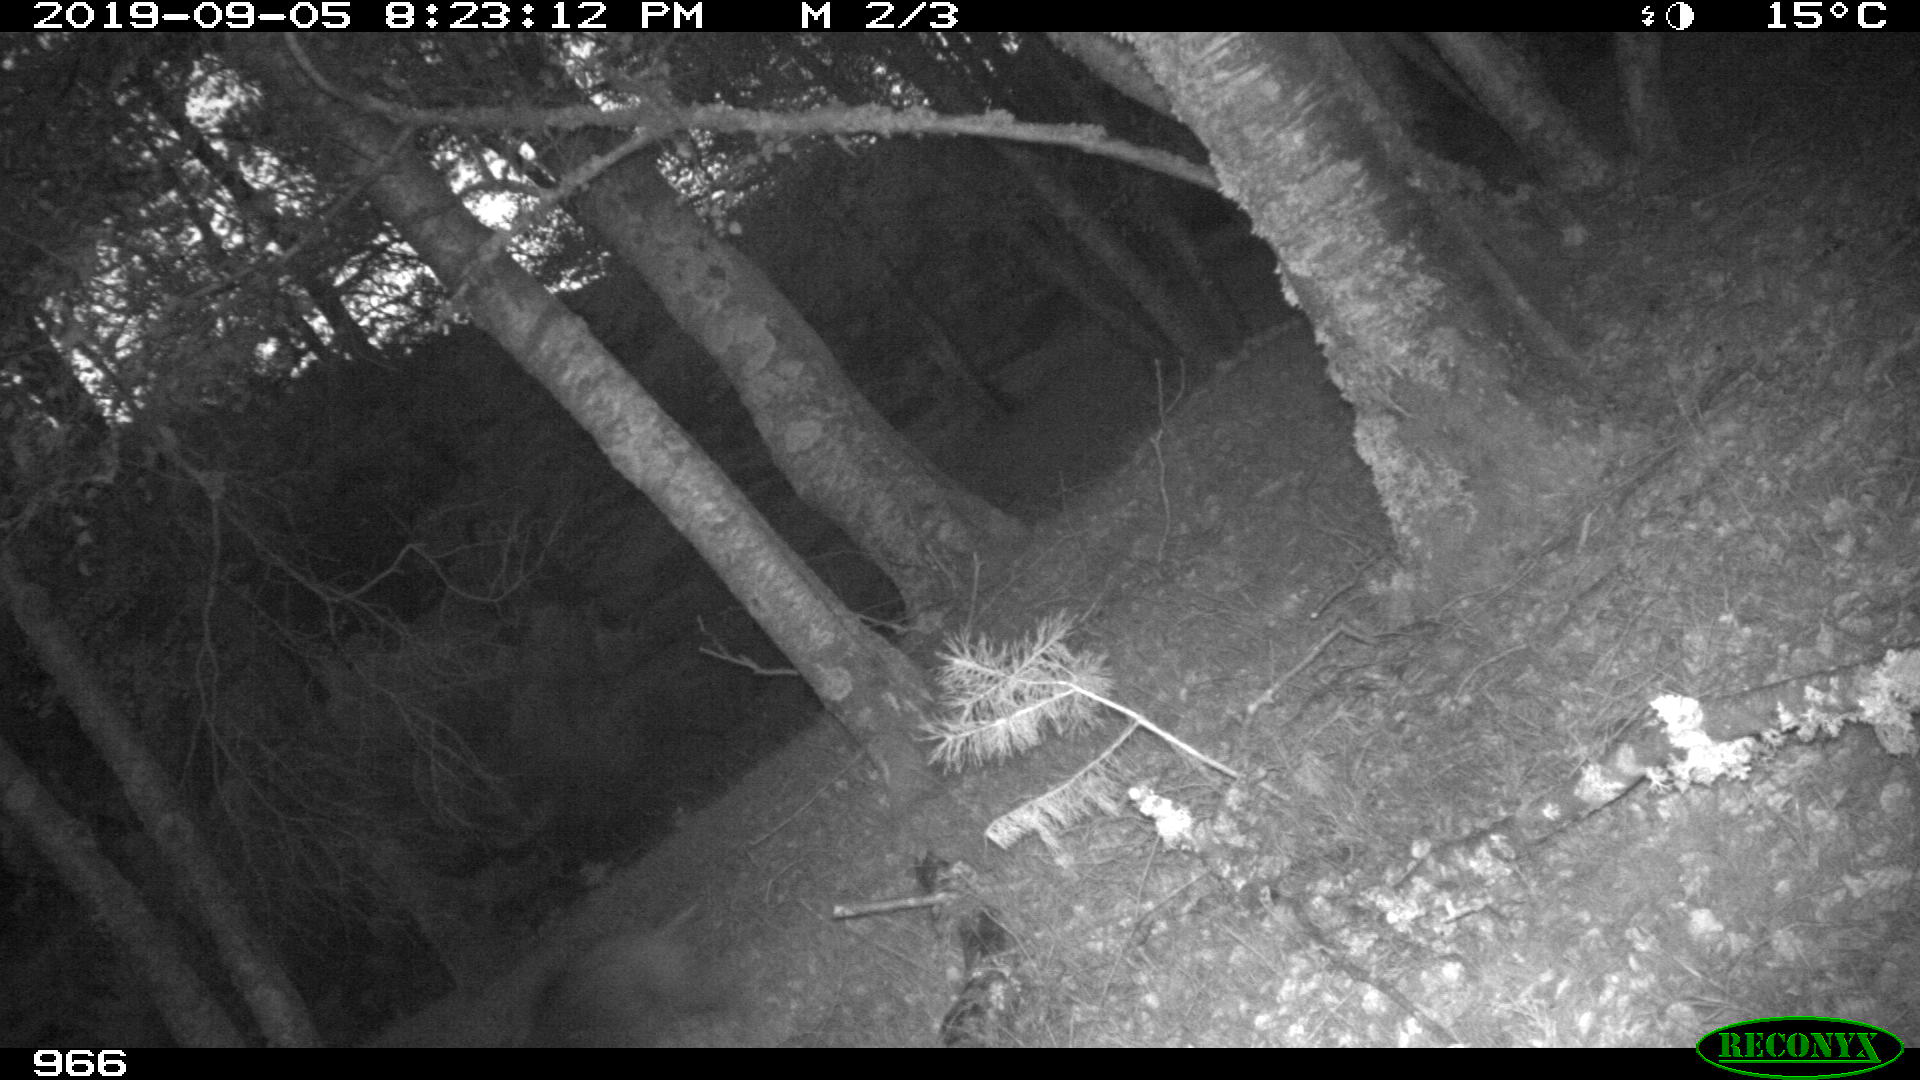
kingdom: Animalia
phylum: Chordata
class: Mammalia
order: Artiodactyla
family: Suidae
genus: Sus
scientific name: Sus scrofa
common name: Wild boar
